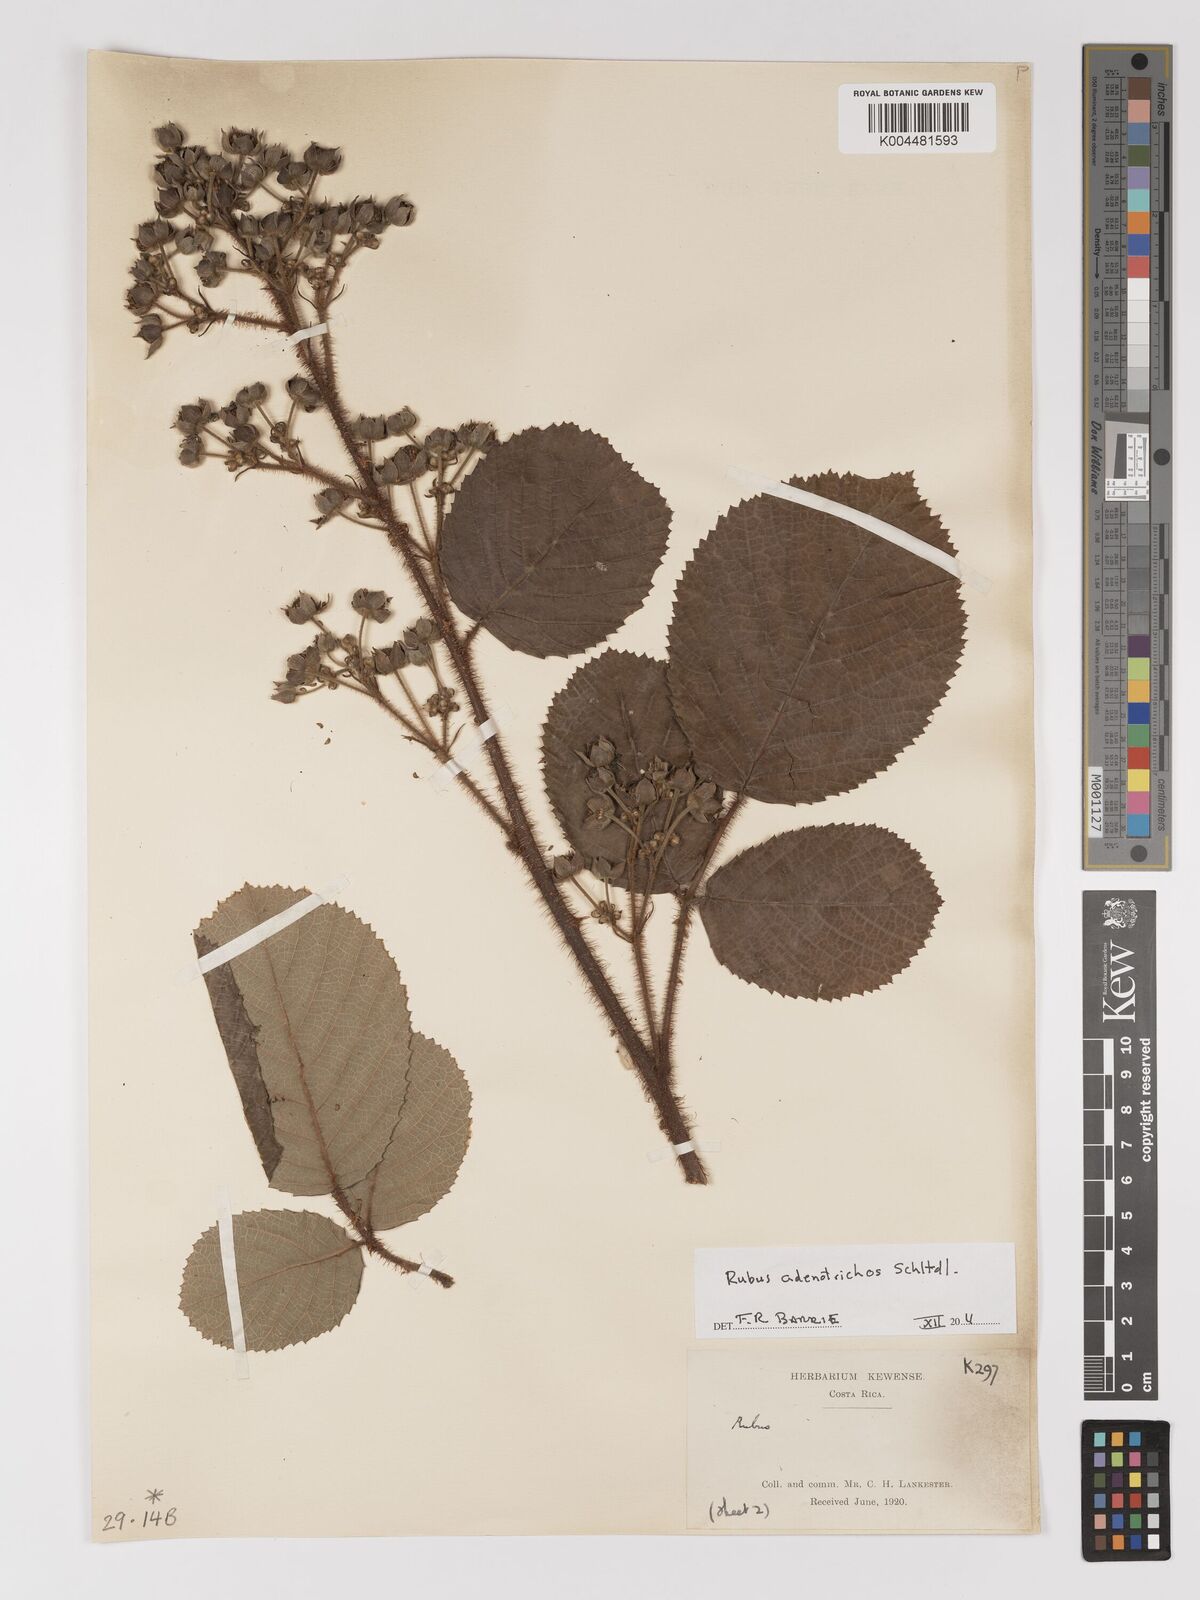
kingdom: Plantae
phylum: Tracheophyta
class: Magnoliopsida
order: Rosales
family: Rosaceae
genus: Rubus
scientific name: Rubus adenotrichos
